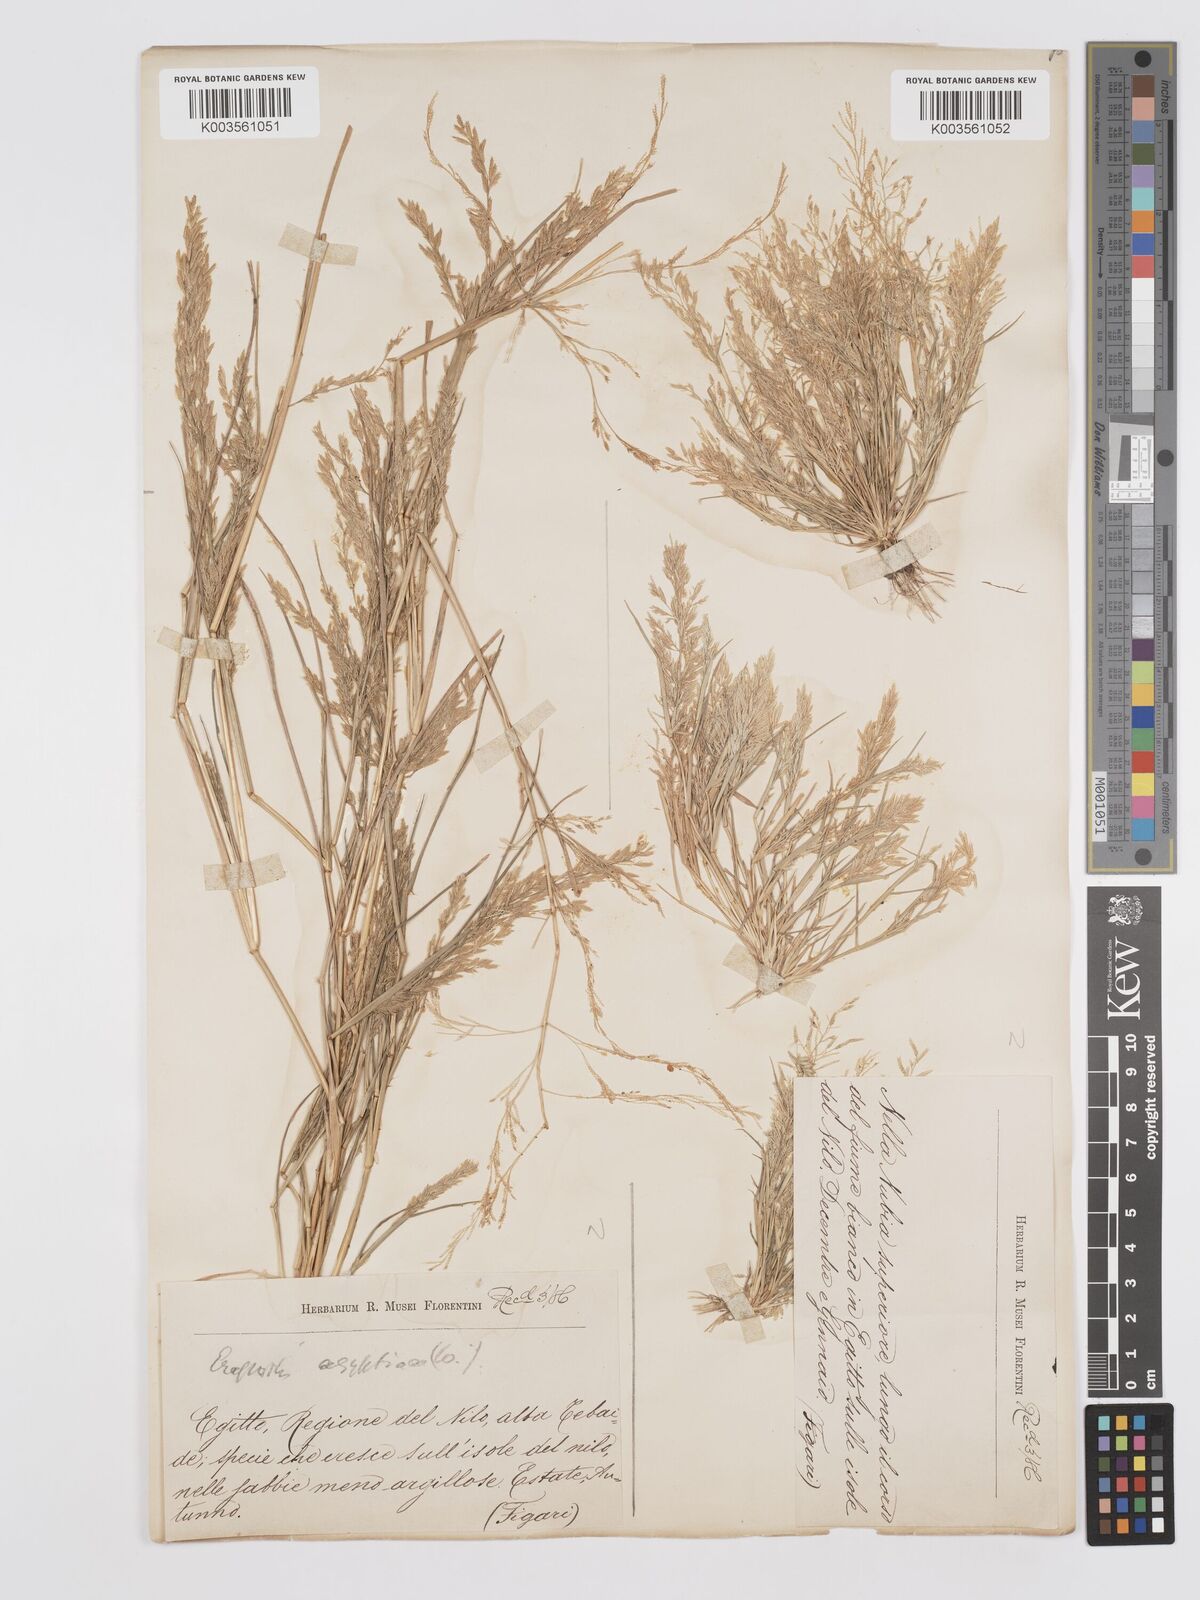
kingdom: Plantae
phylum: Tracheophyta
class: Liliopsida
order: Poales
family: Poaceae
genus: Eragrostis
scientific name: Eragrostis aegyptiaca
